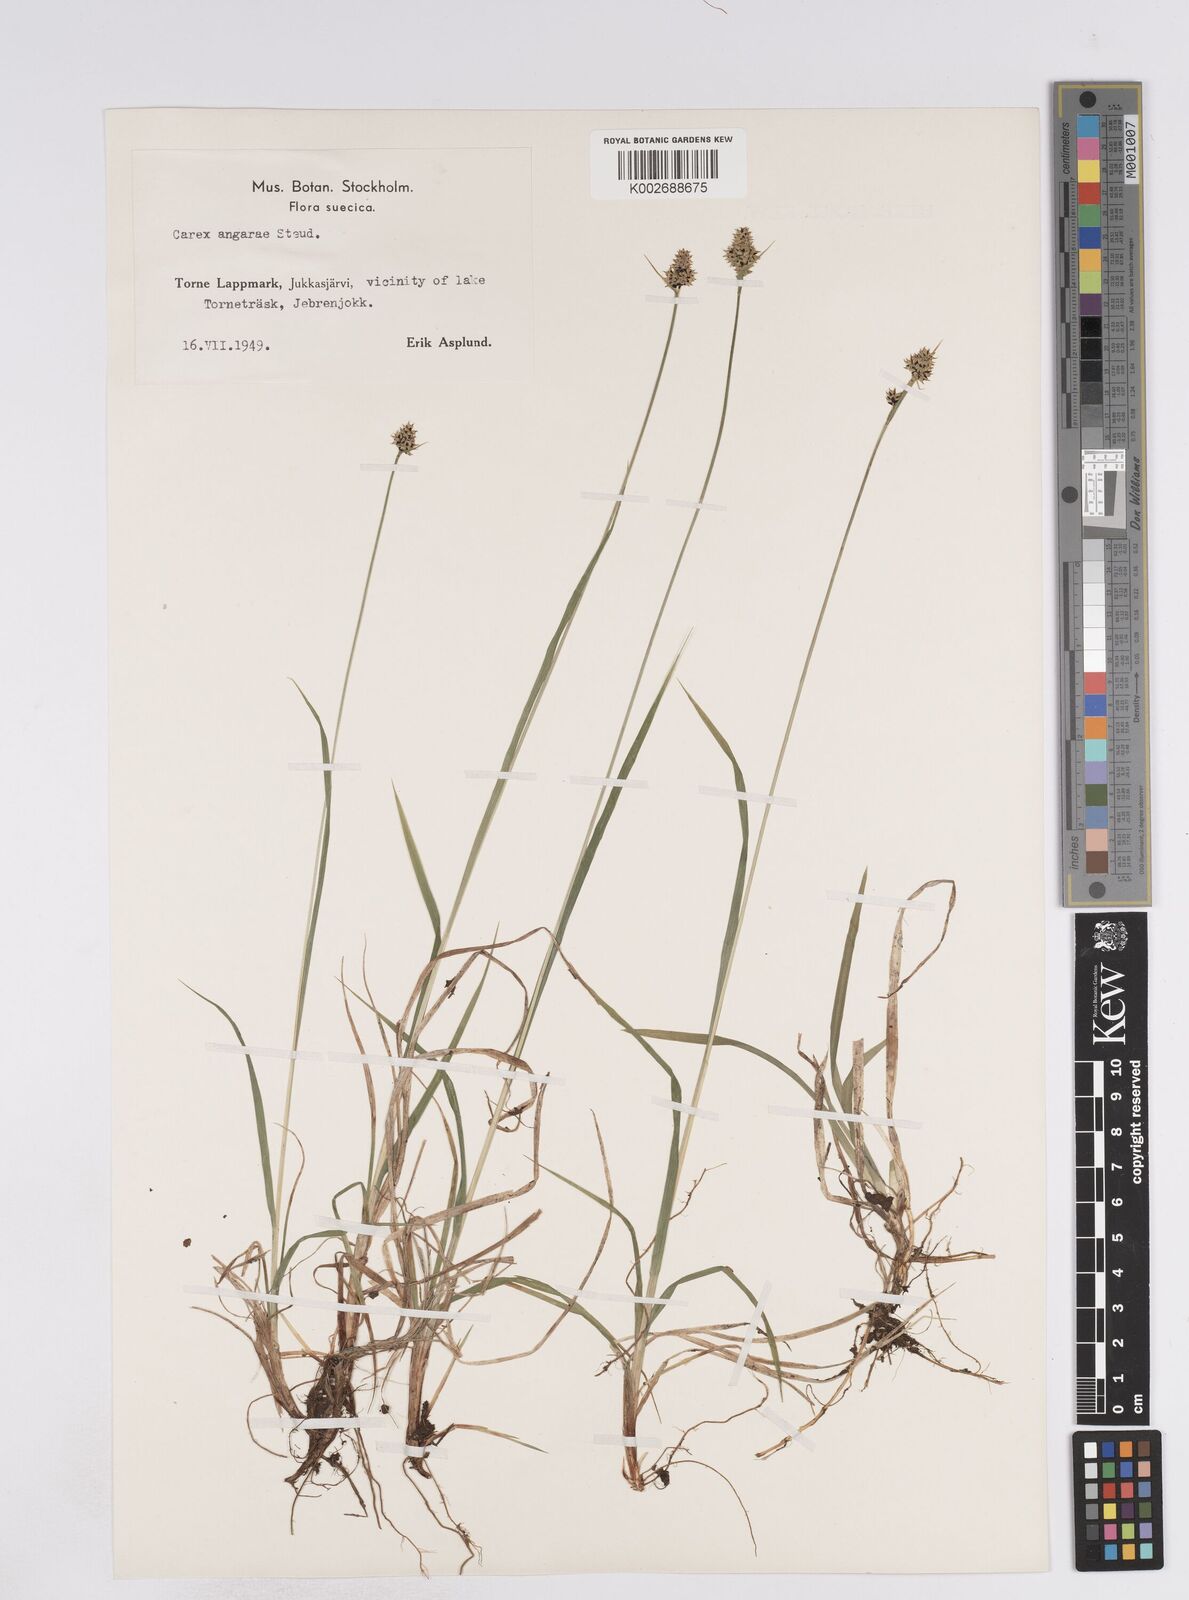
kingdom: Plantae
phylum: Tracheophyta
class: Liliopsida
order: Poales
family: Cyperaceae
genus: Carex
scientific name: Carex media
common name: Alpine sedge
